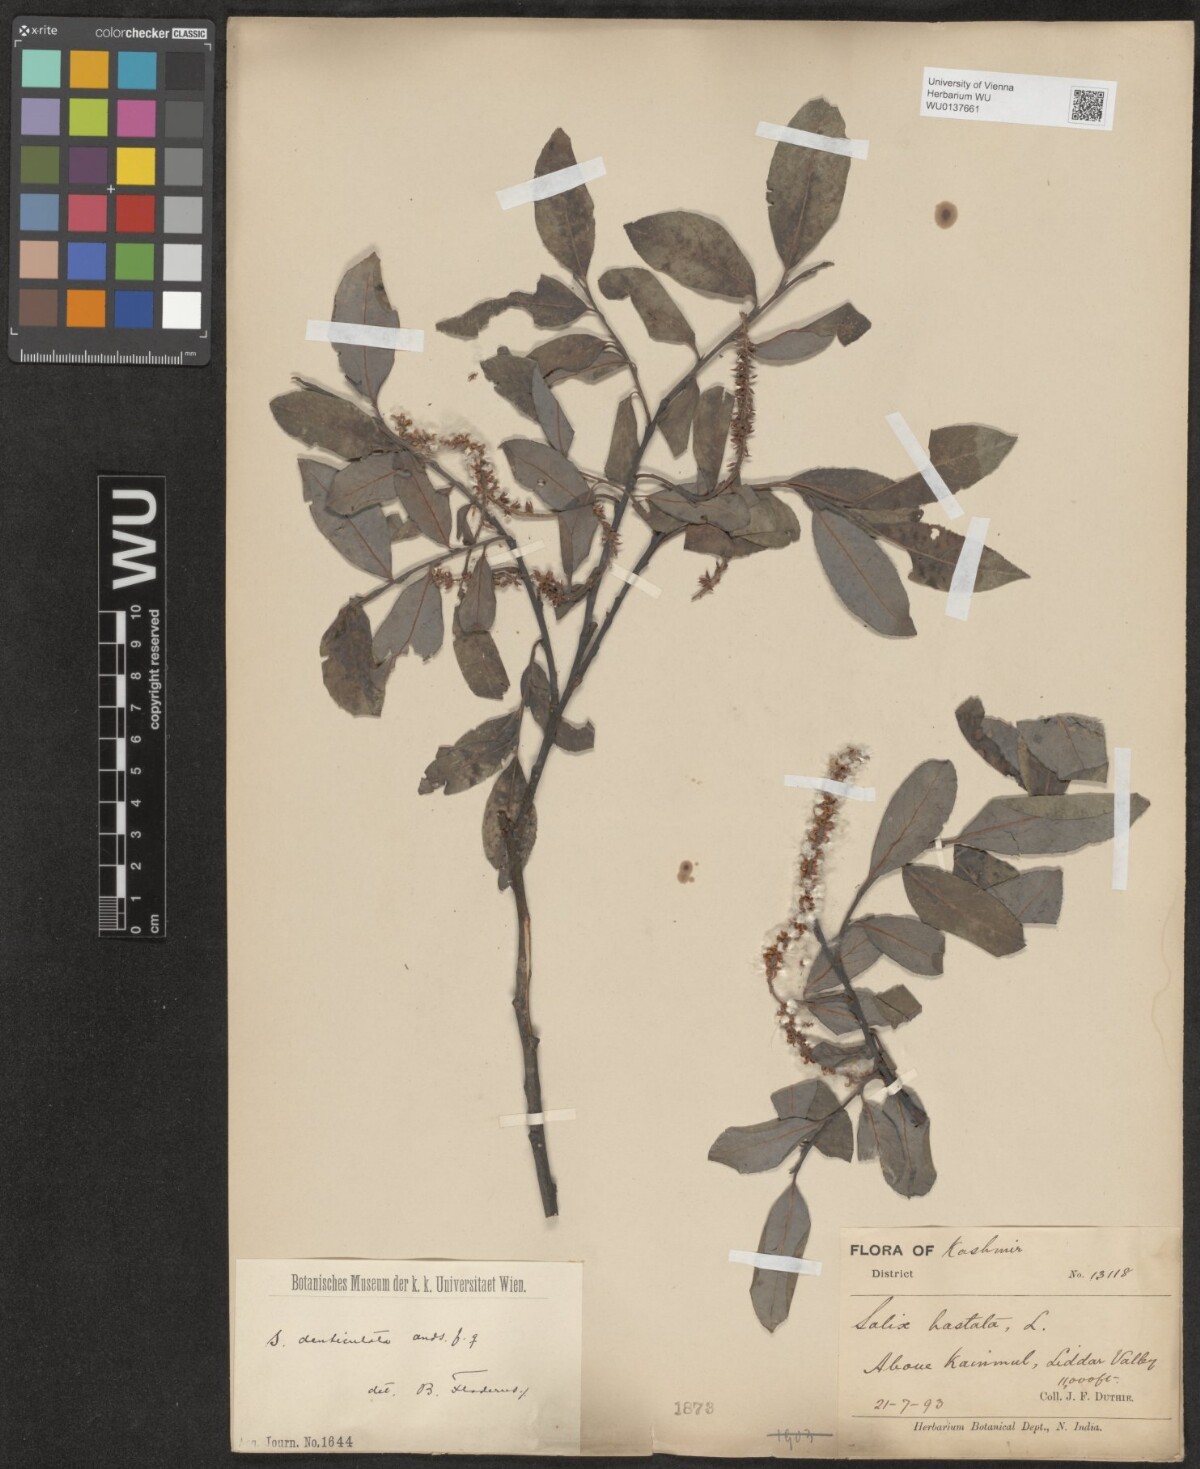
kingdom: Plantae
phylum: Tracheophyta
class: Magnoliopsida
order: Malpighiales
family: Salicaceae
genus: Salix
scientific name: Salix hastata
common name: Halberd willow
